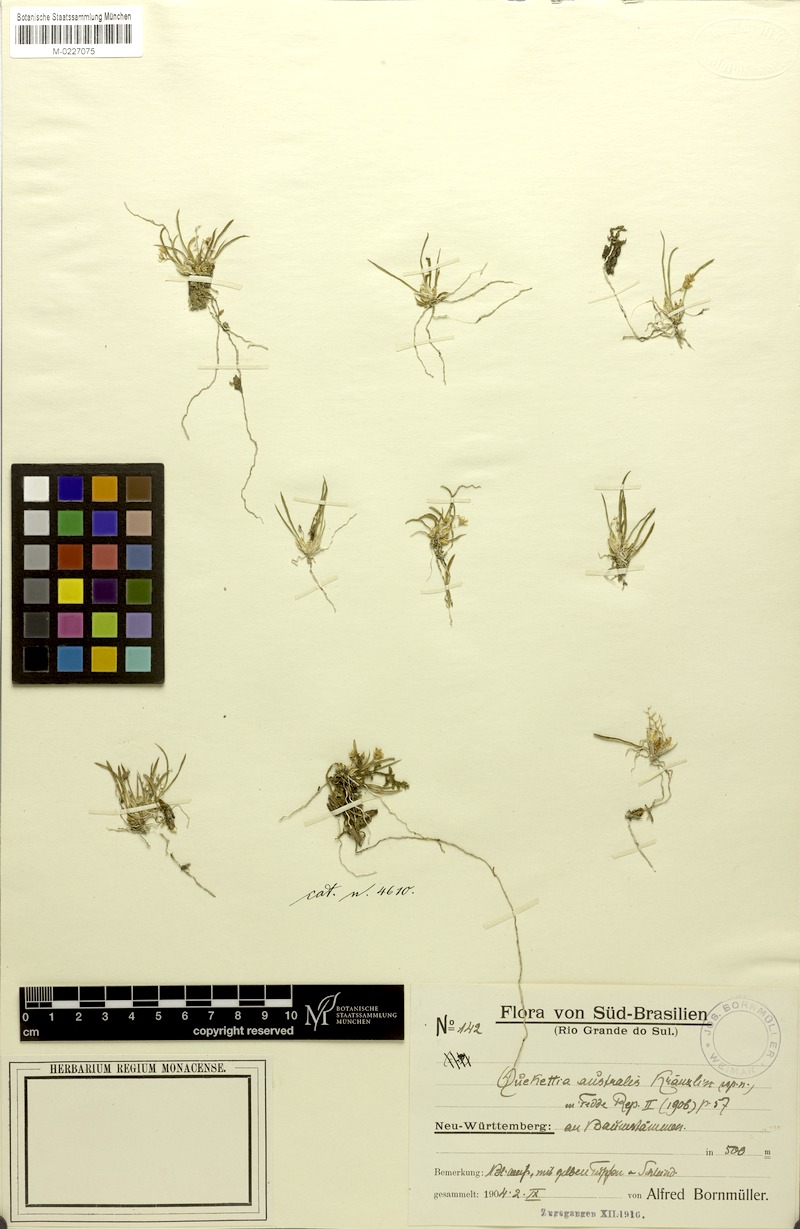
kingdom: Plantae
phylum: Tracheophyta
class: Liliopsida
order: Asparagales
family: Orchidaceae
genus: Capanemia
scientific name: Capanemia micromera
